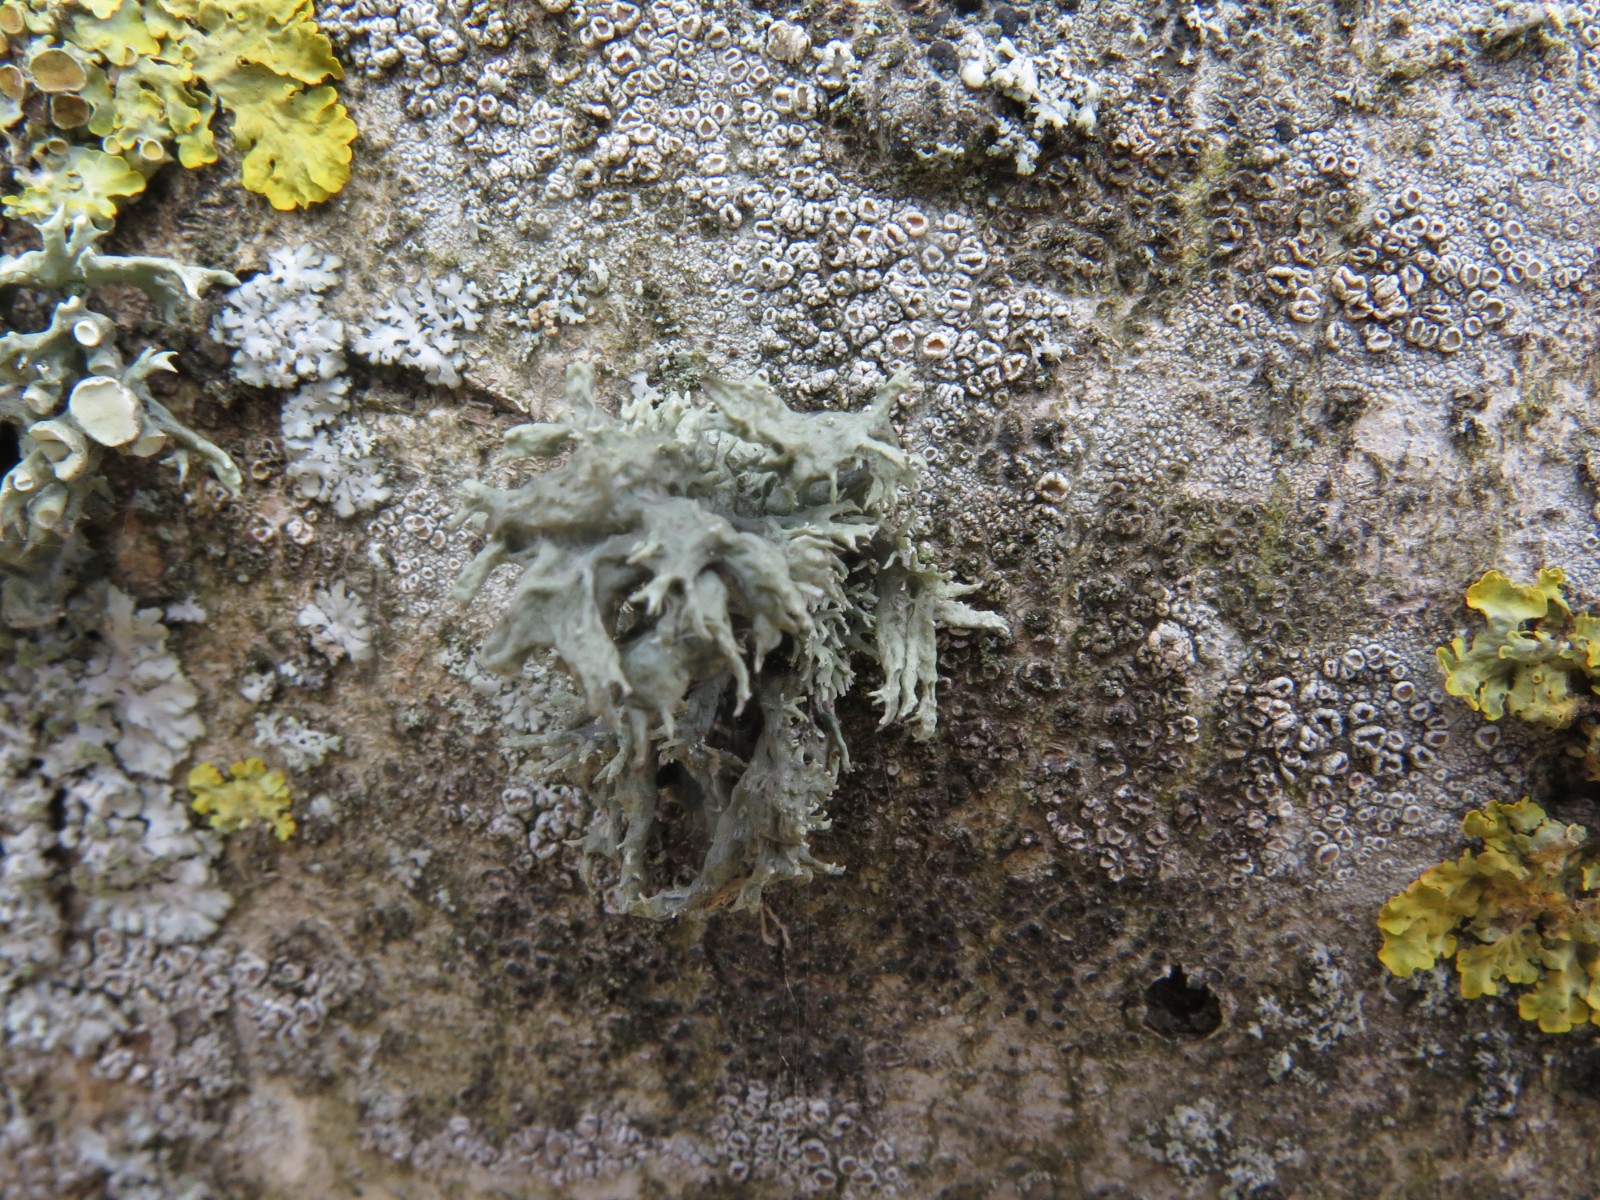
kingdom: Fungi
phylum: Ascomycota
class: Lecanoromycetes
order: Lecanorales
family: Parmeliaceae
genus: Evernia
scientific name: Evernia prunastri
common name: almindelig slåenlav
